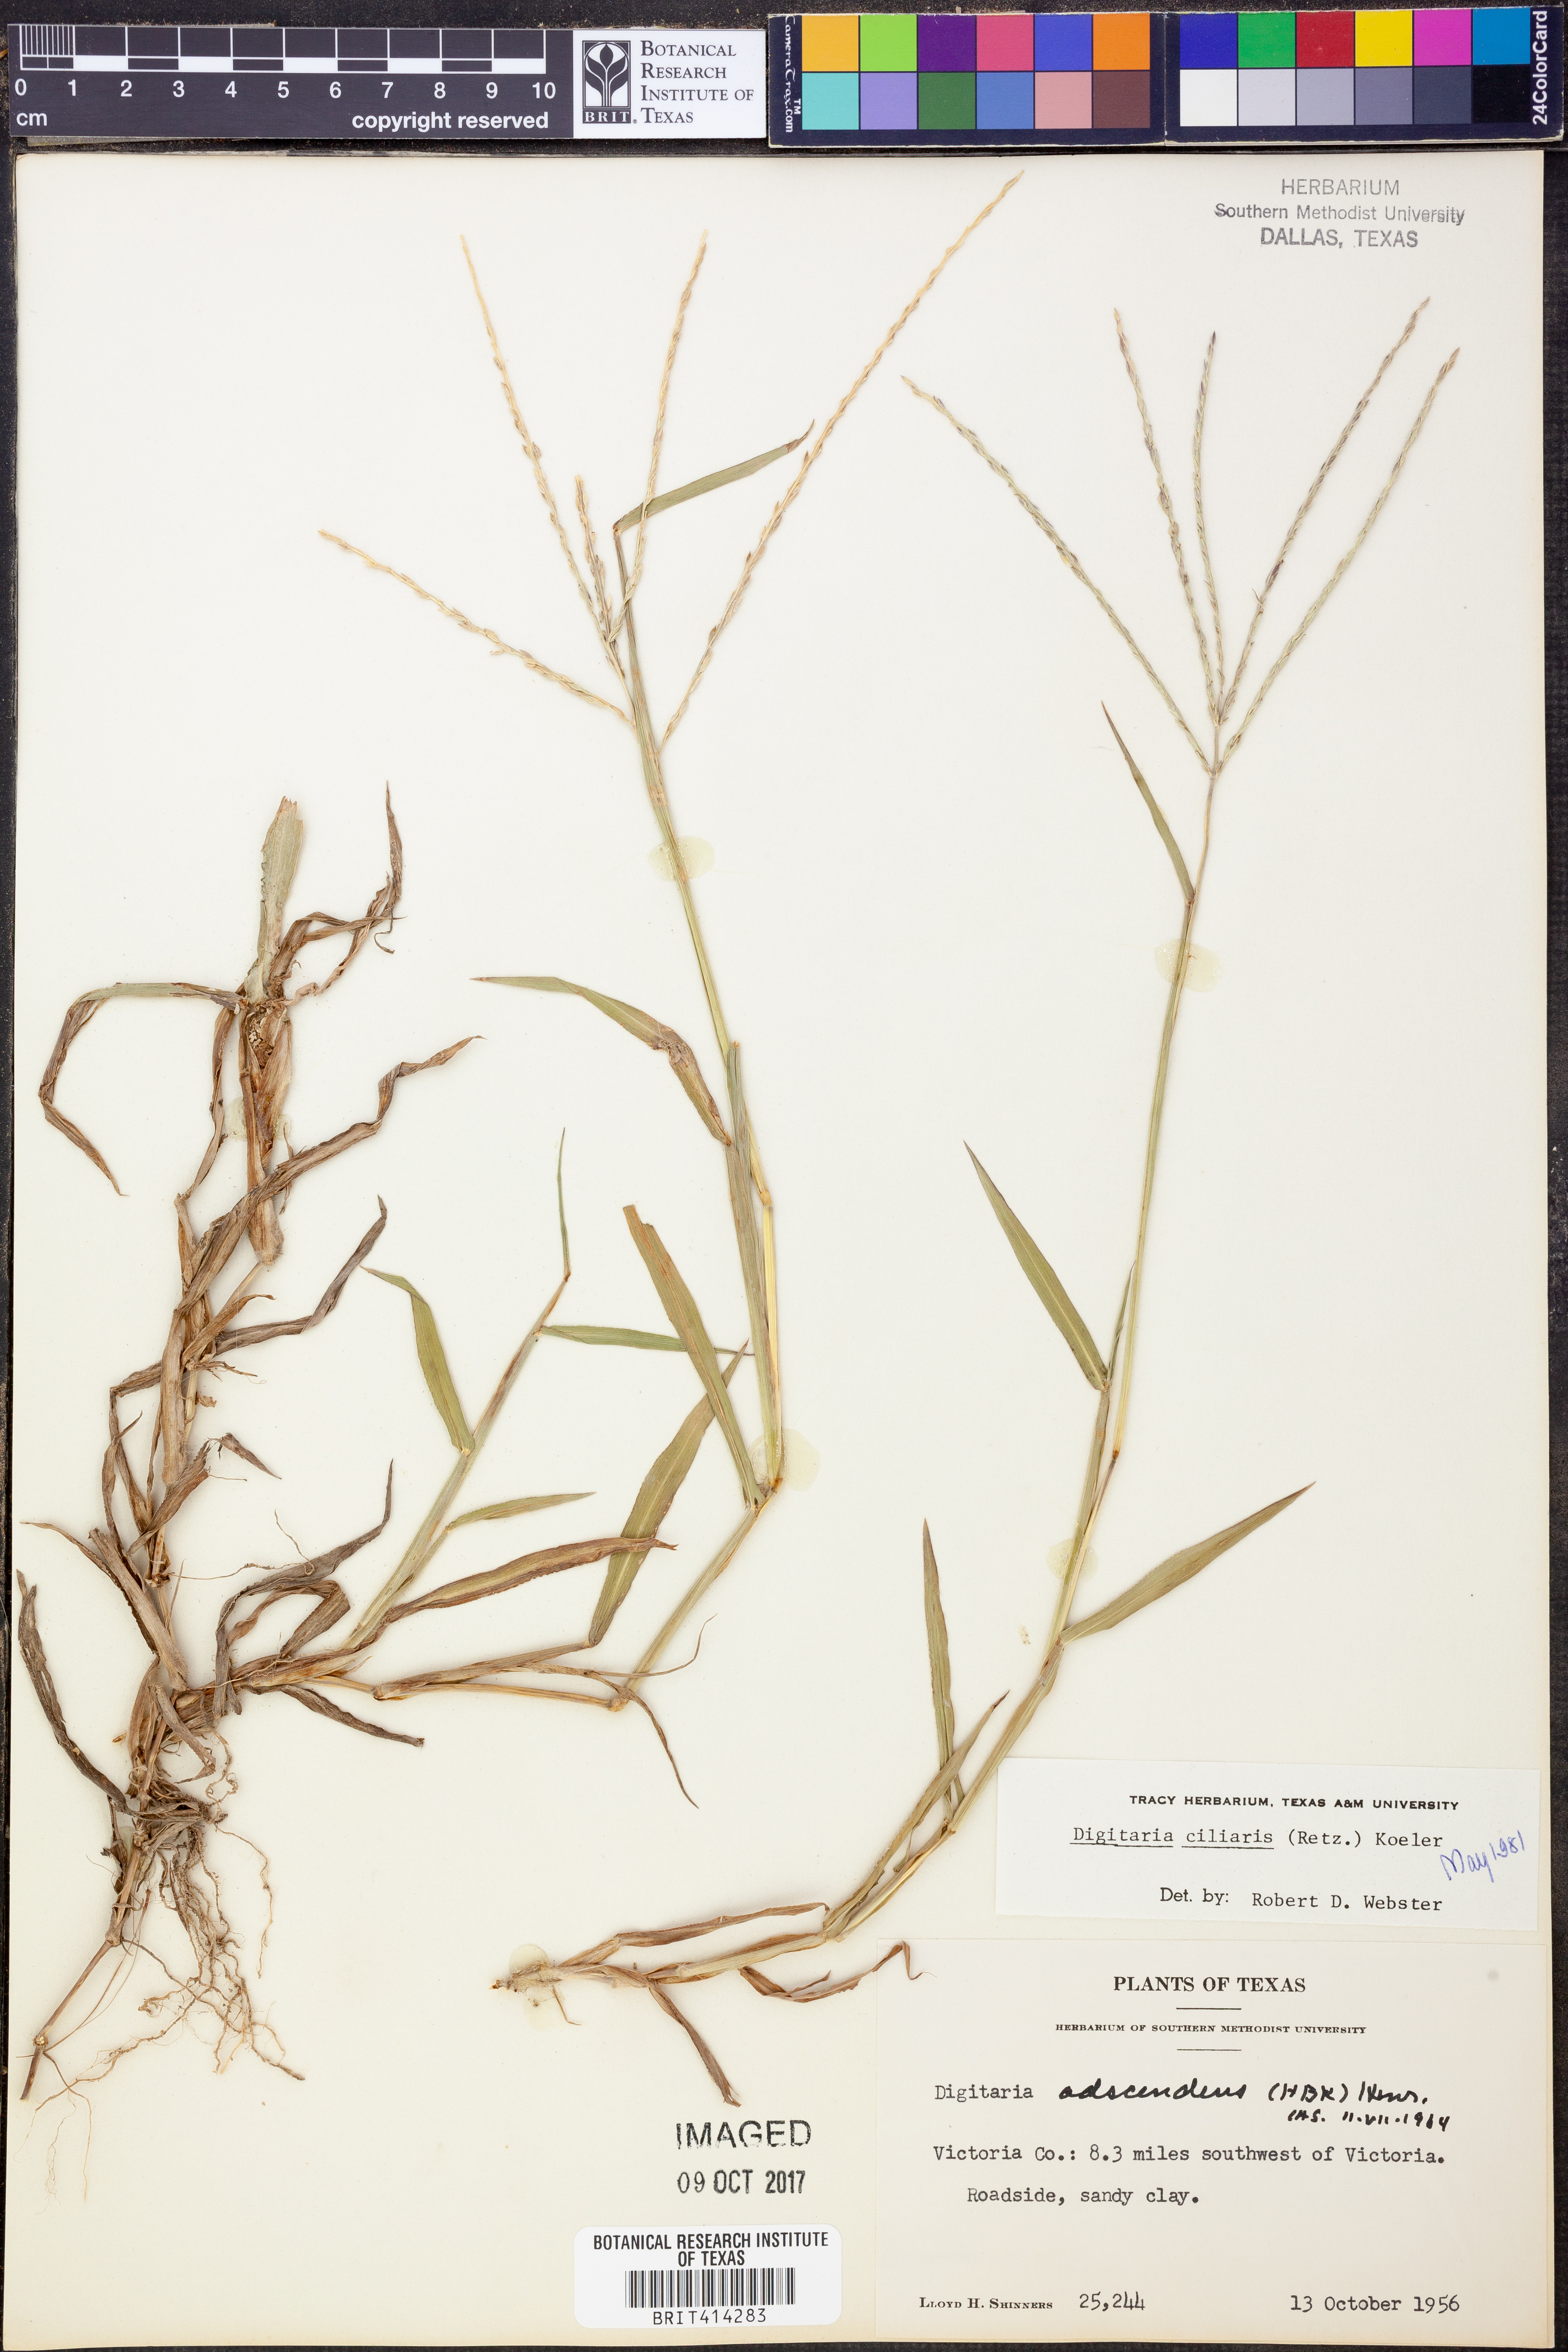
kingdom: Plantae
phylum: Tracheophyta
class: Liliopsida
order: Poales
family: Poaceae
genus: Digitaria
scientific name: Digitaria ciliaris
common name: Tropical finger-grass
